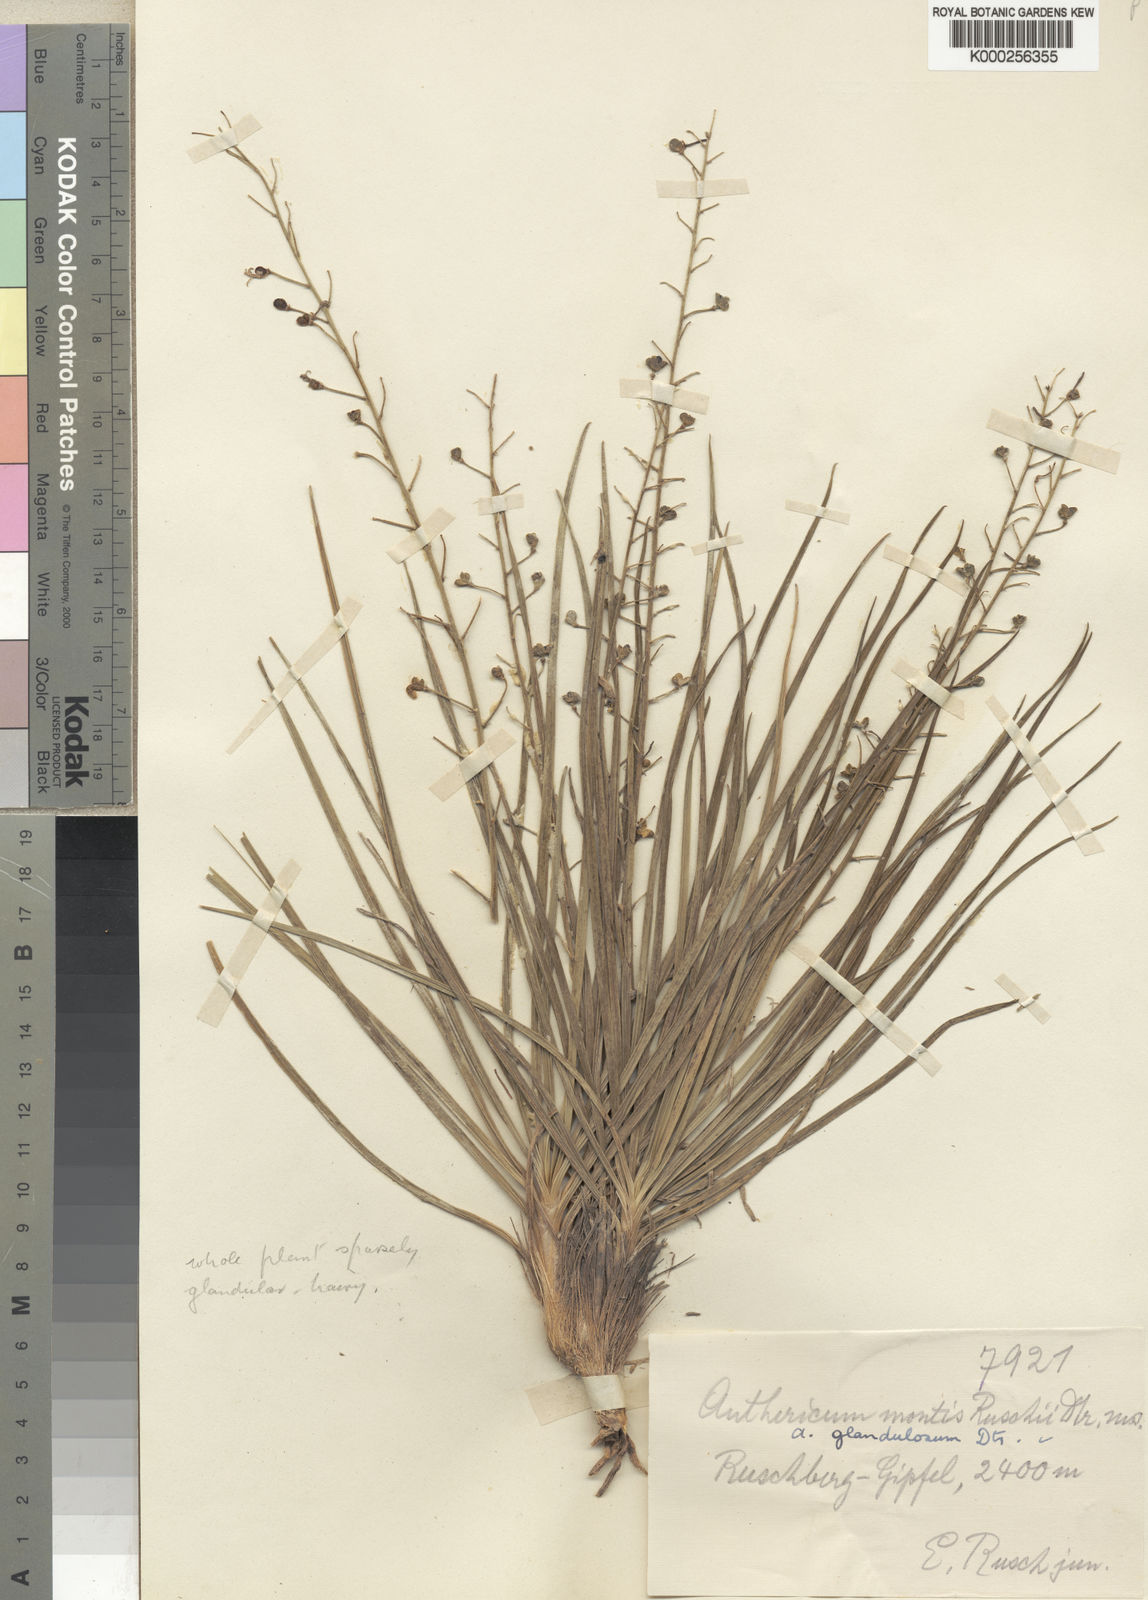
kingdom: Plantae
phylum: Tracheophyta
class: Liliopsida
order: Asparagales
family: Asphodelaceae
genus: Trachyandra
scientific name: Trachyandra glandulosa
